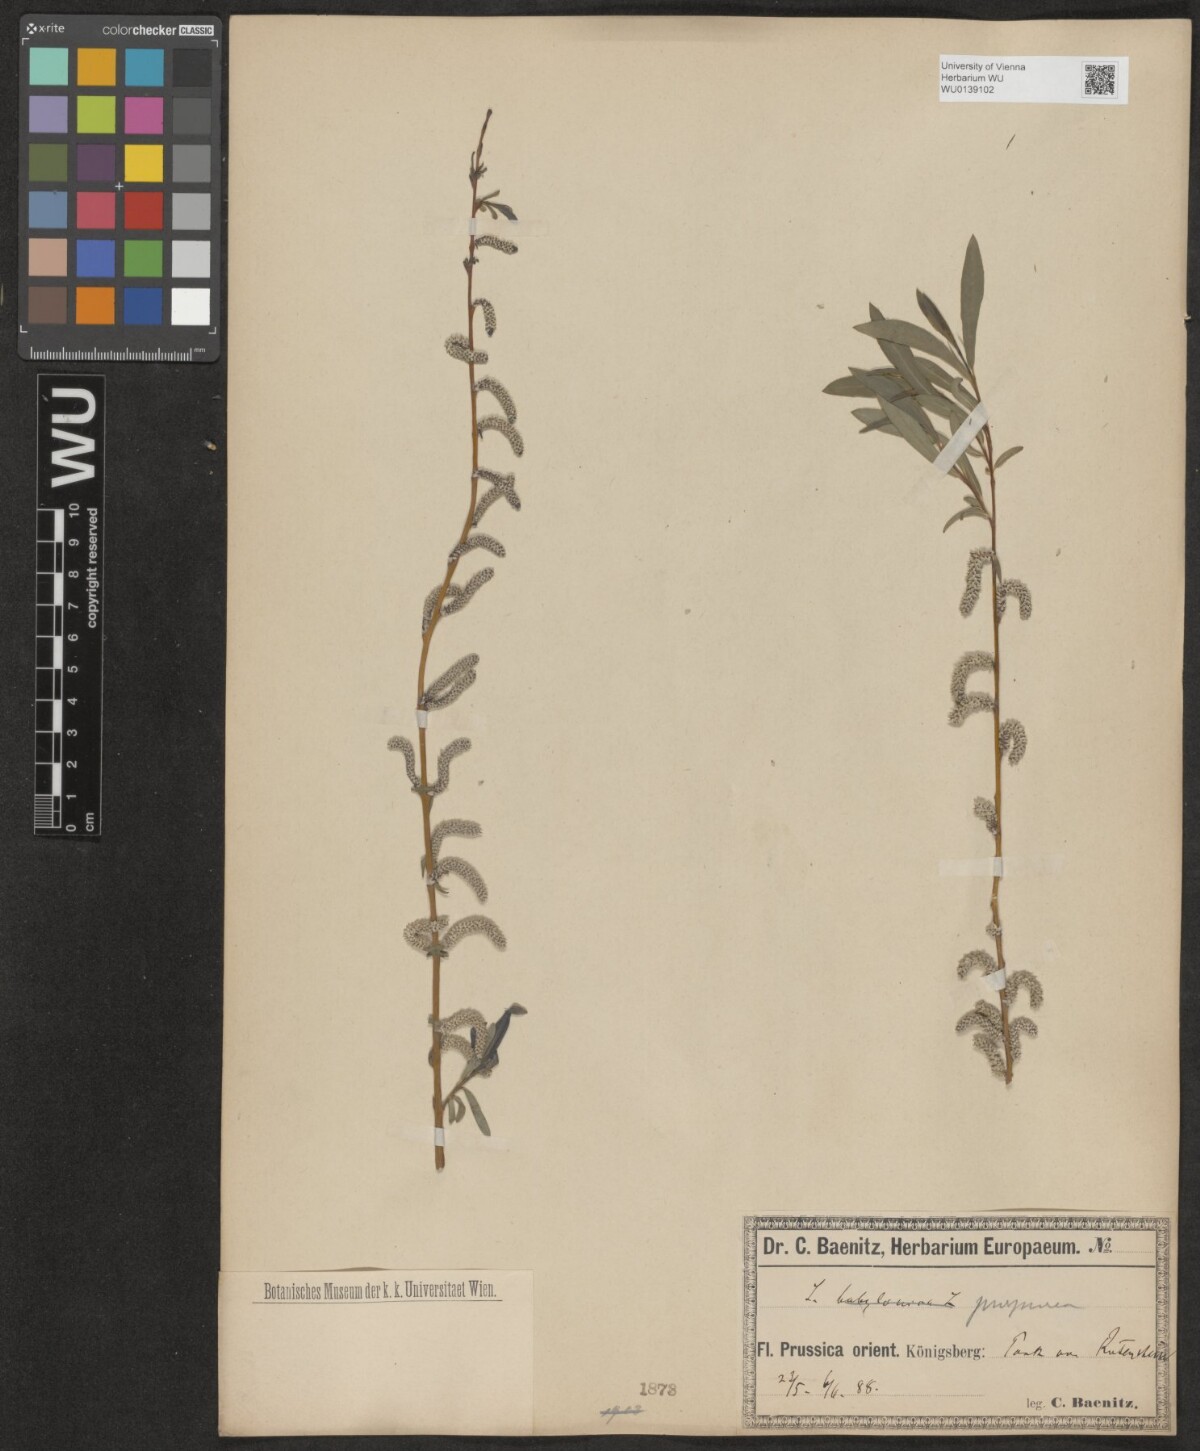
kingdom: Plantae
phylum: Tracheophyta
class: Magnoliopsida
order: Malpighiales
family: Salicaceae
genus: Salix
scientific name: Salix purpurea
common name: Purple willow
